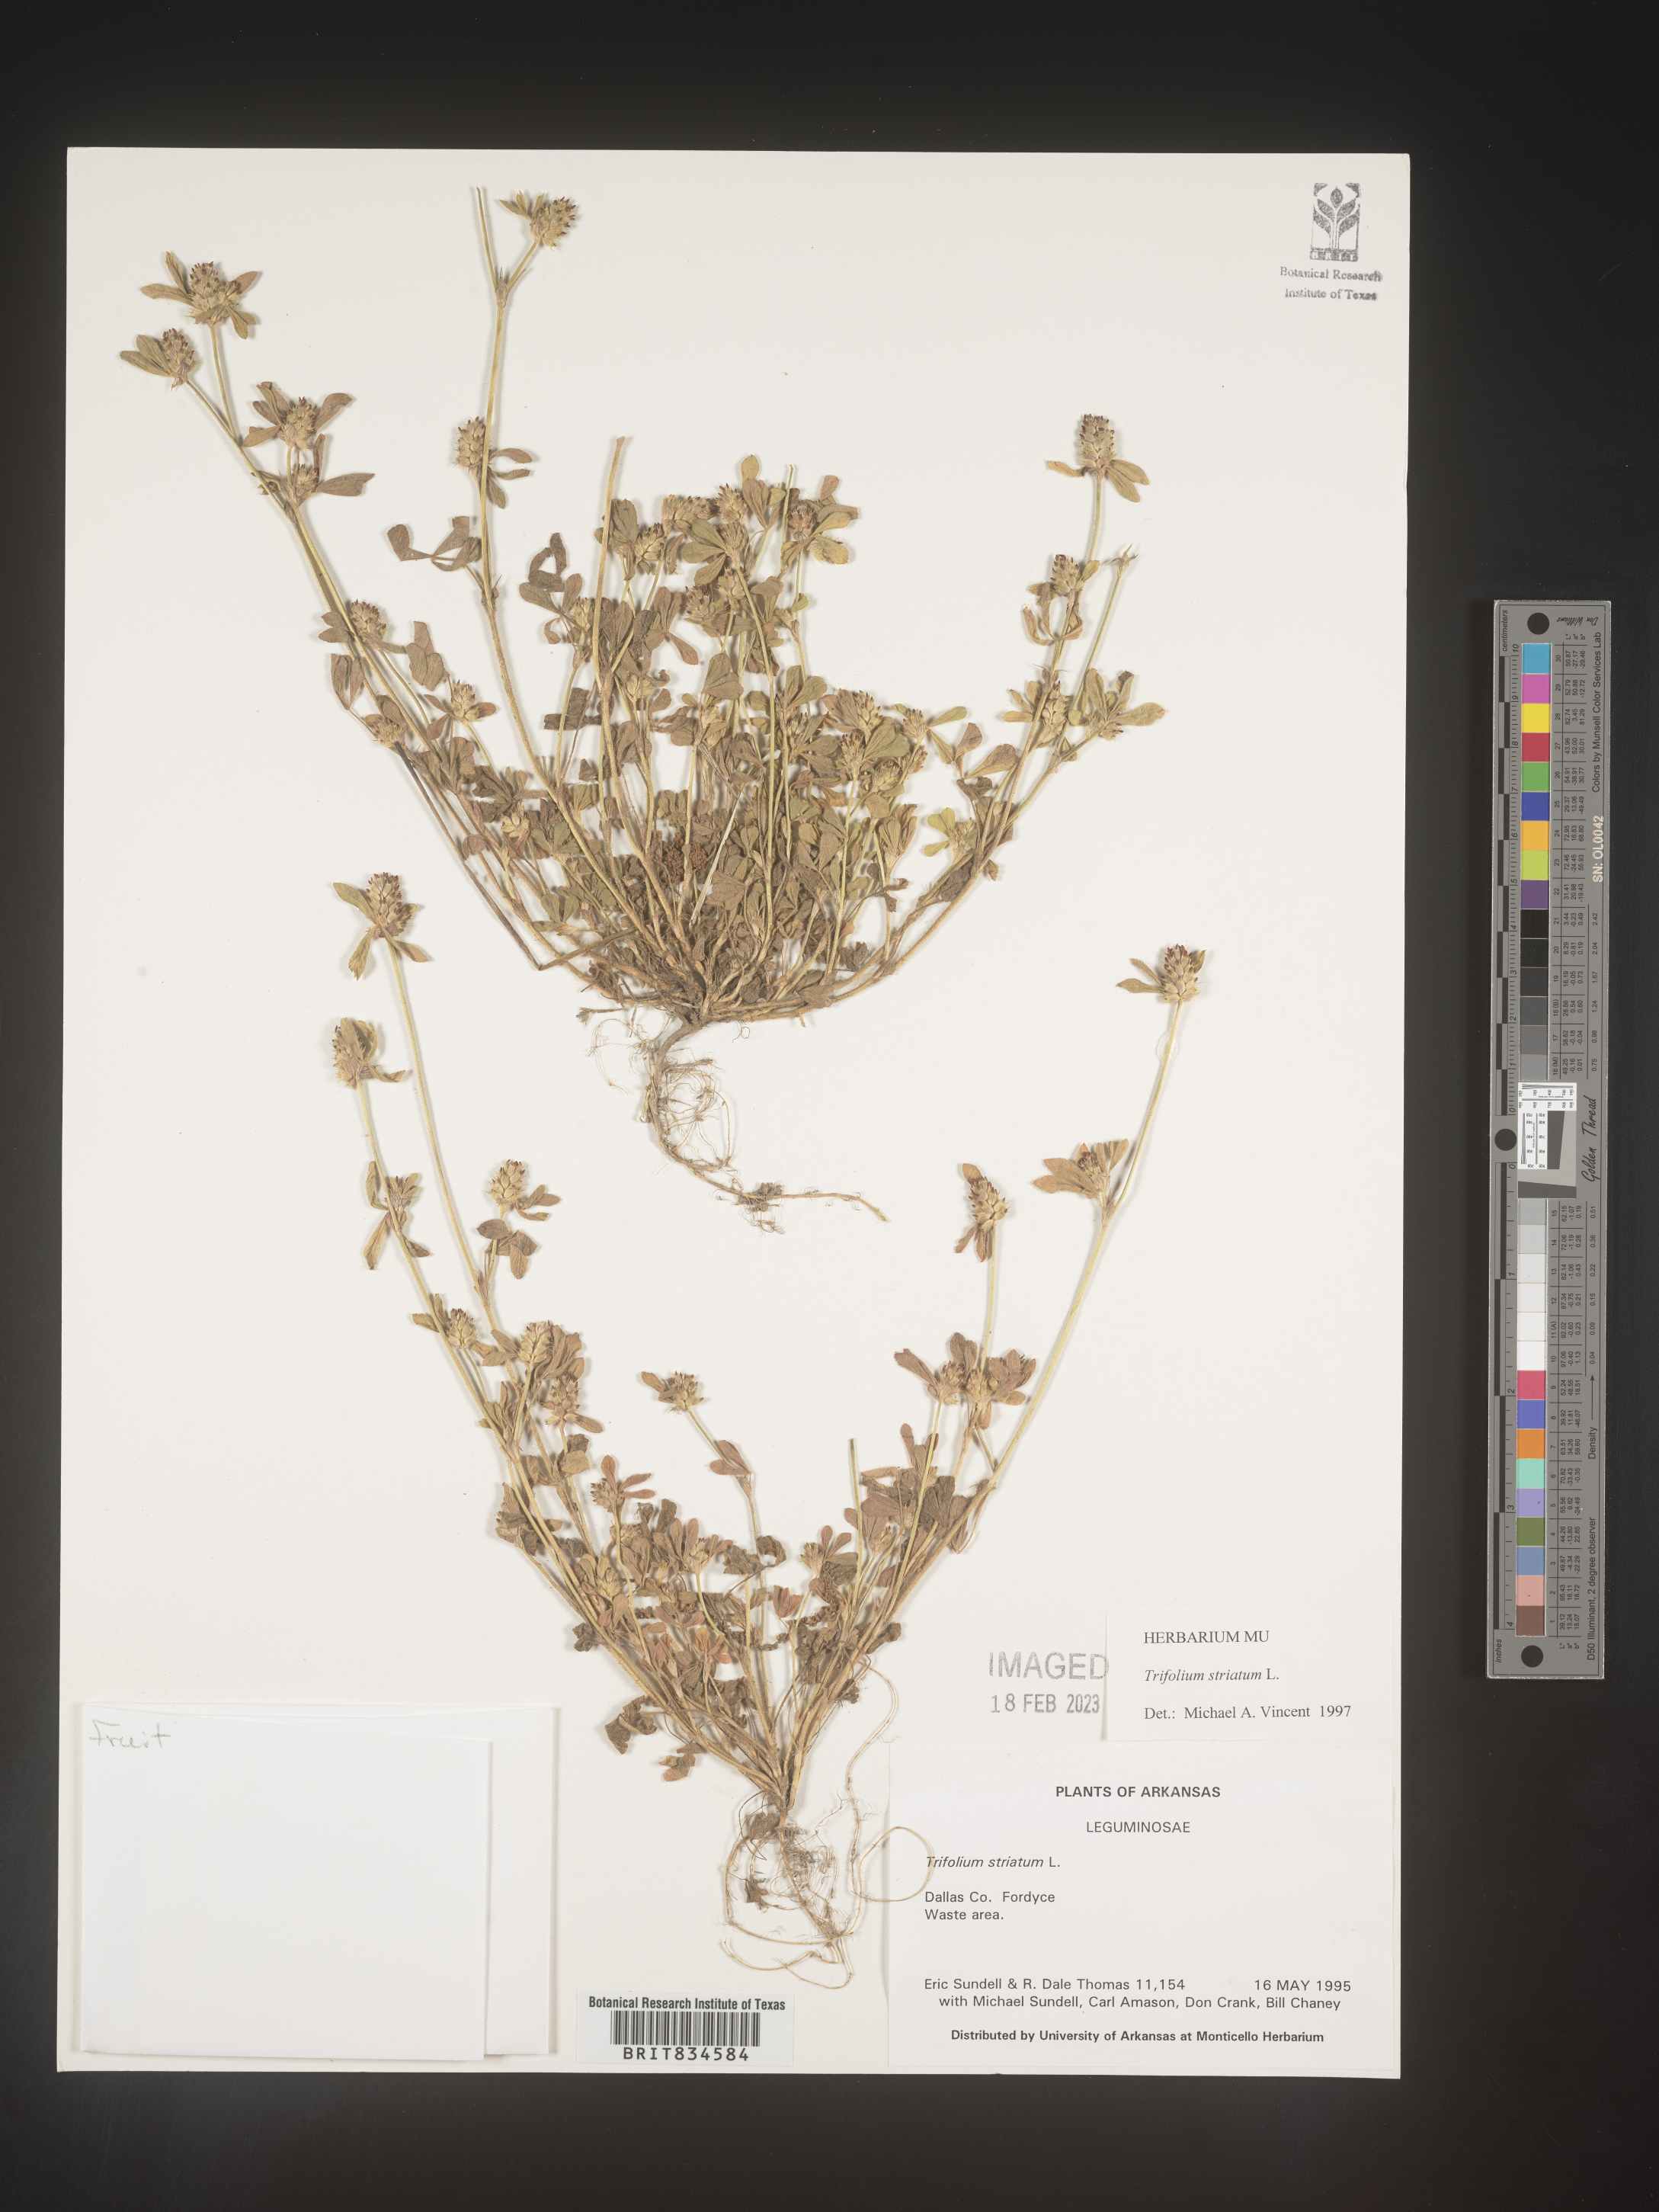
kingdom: Plantae
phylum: Tracheophyta
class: Magnoliopsida
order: Fabales
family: Fabaceae
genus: Trifolium
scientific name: Trifolium
